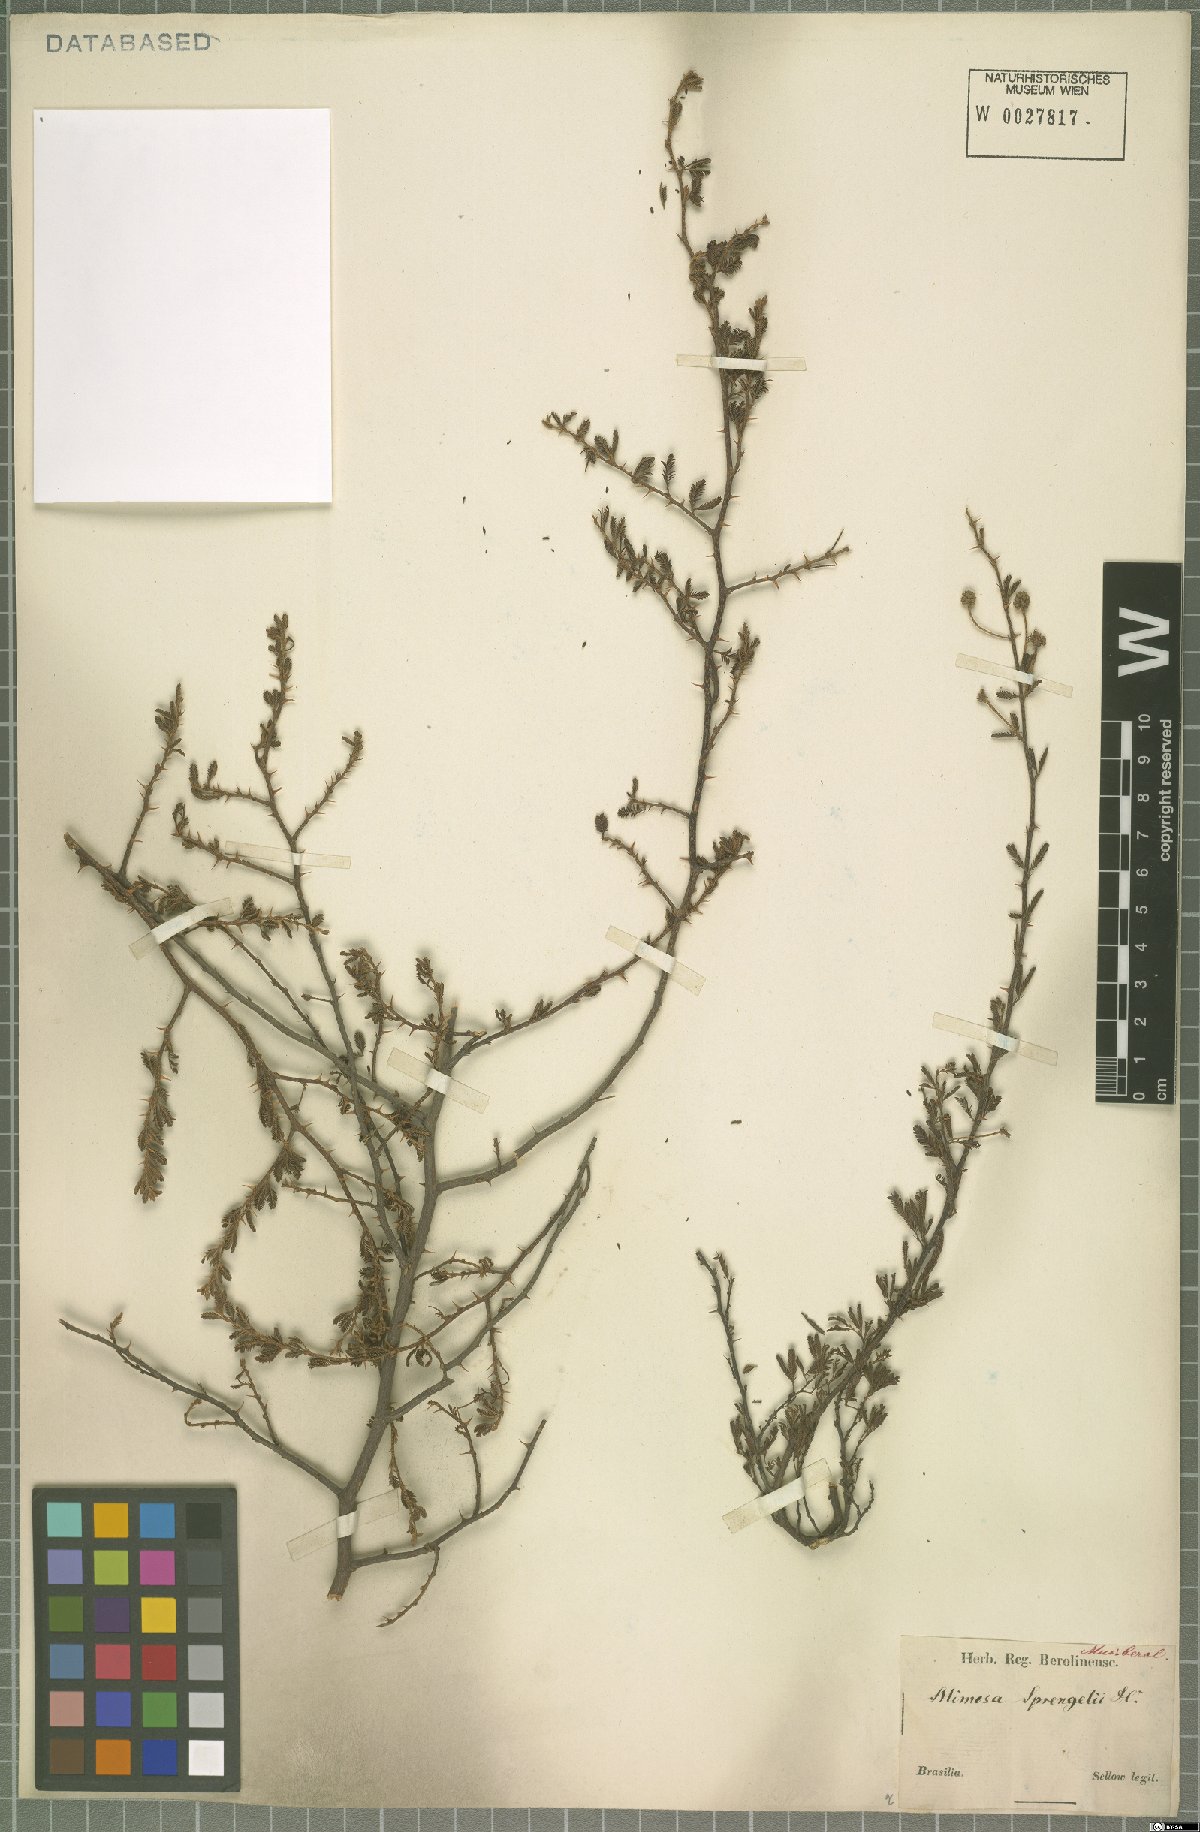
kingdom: Plantae
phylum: Tracheophyta
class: Magnoliopsida
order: Fabales
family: Fabaceae
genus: Mimosa
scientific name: Mimosa sprengelii
